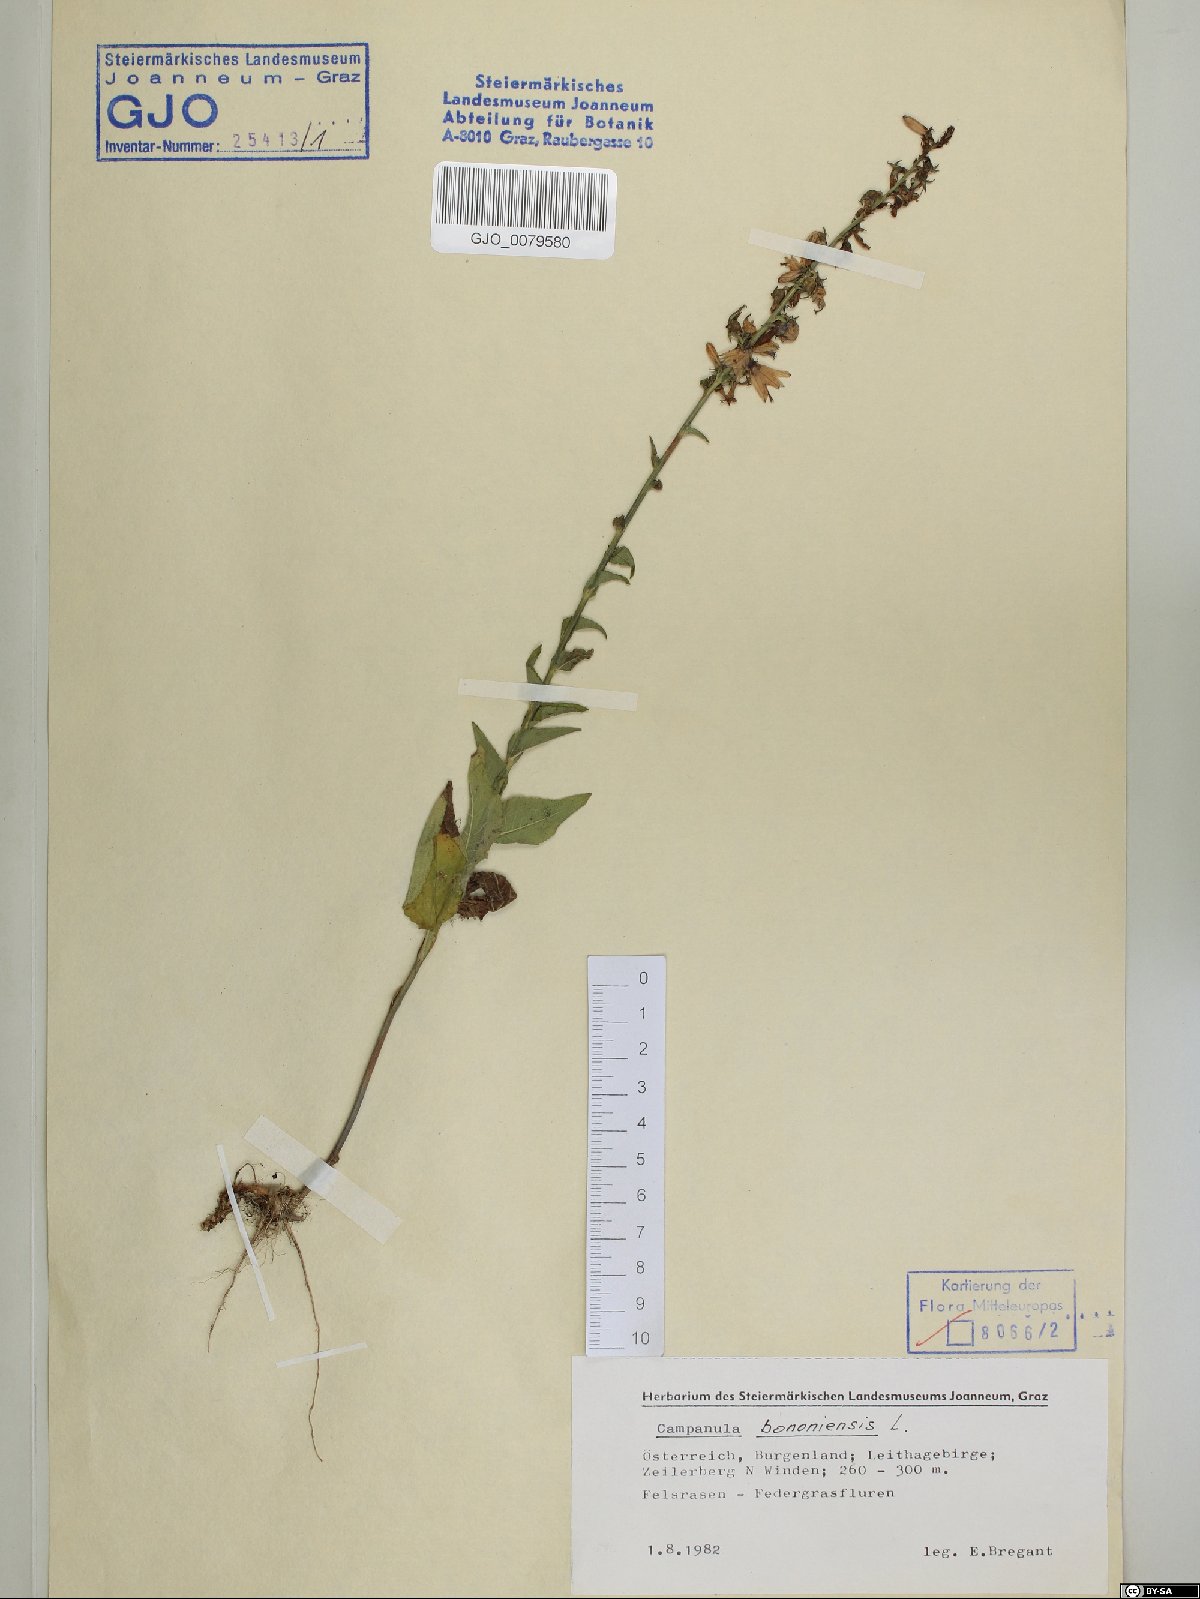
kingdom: Plantae
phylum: Tracheophyta
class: Magnoliopsida
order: Asterales
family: Campanulaceae
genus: Campanula
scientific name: Campanula bononiensis
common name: Pale bellflower
